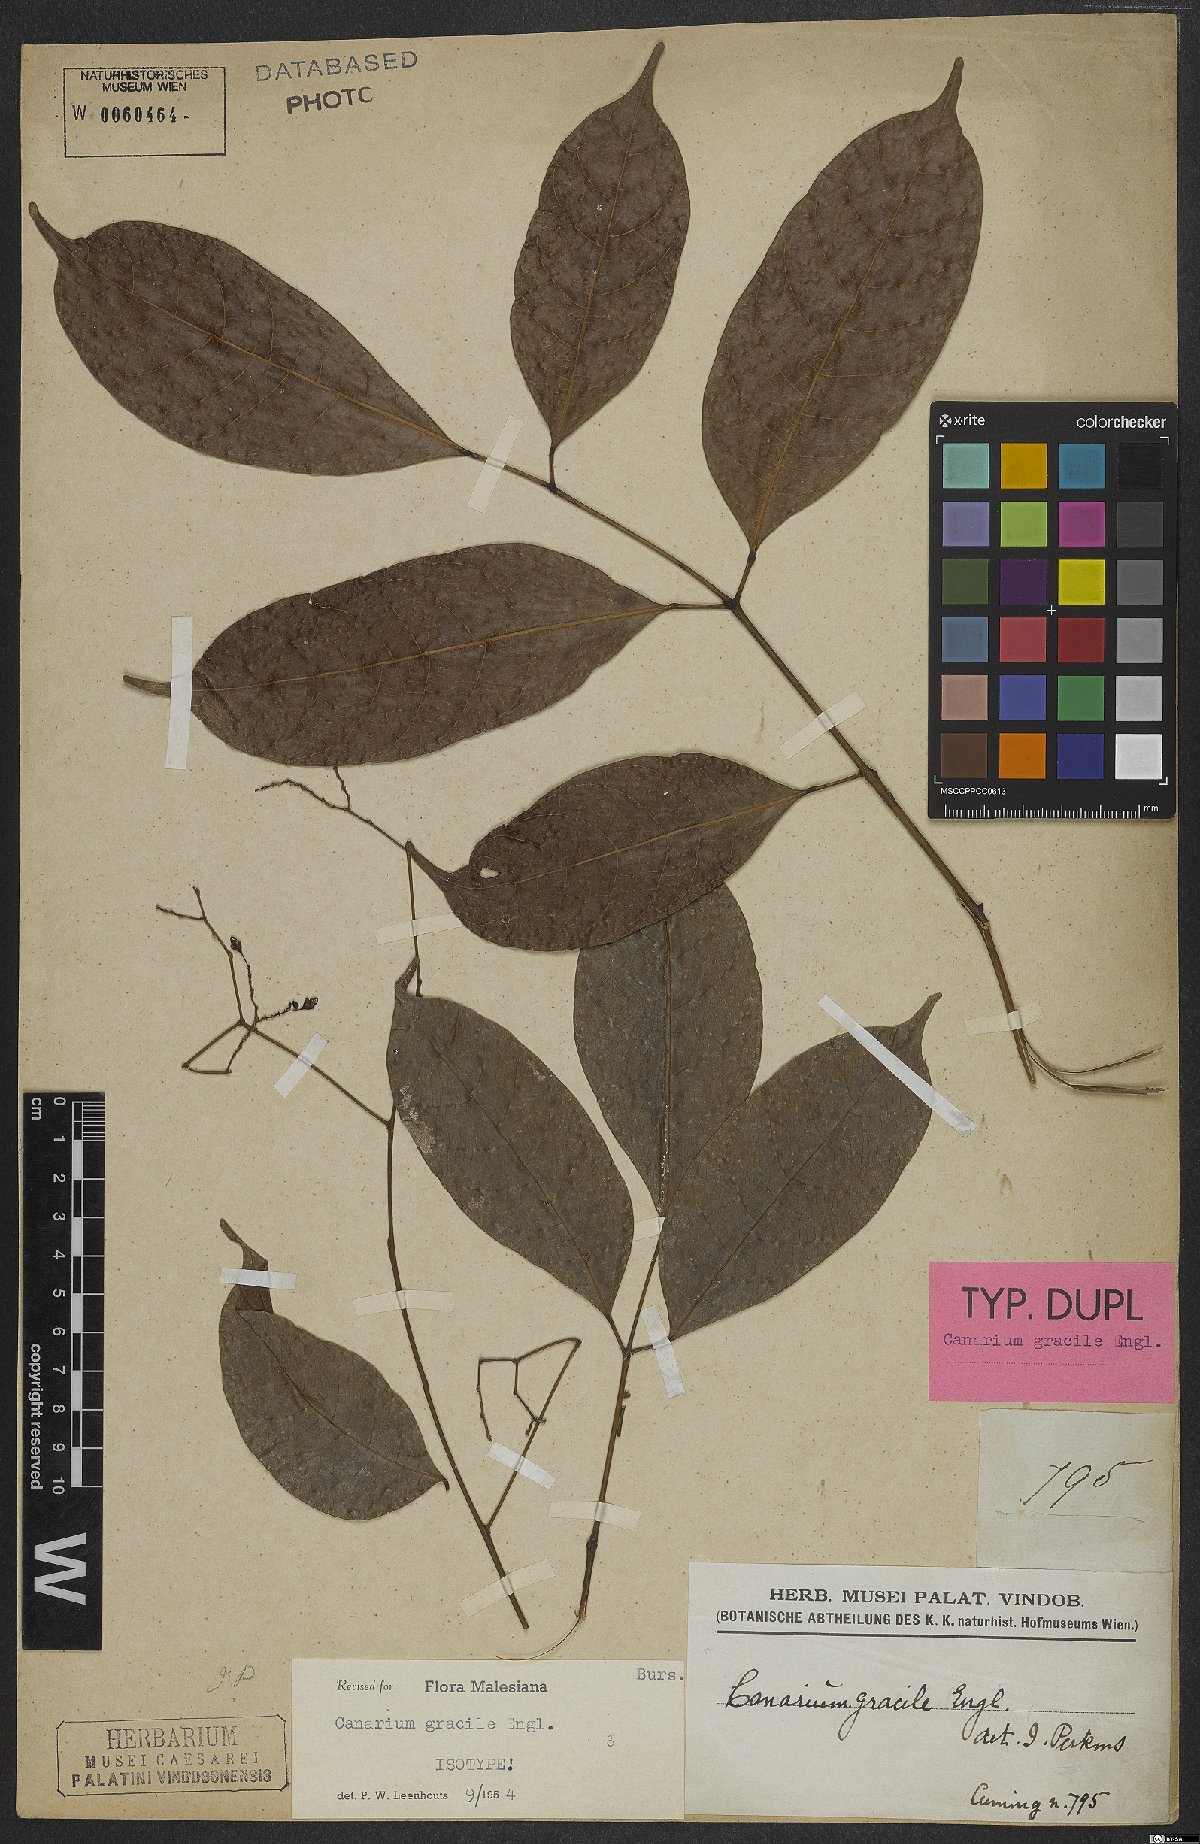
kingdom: Plantae
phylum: Tracheophyta
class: Magnoliopsida
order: Sapindales
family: Burseraceae
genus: Canarium
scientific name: Canarium gracile
